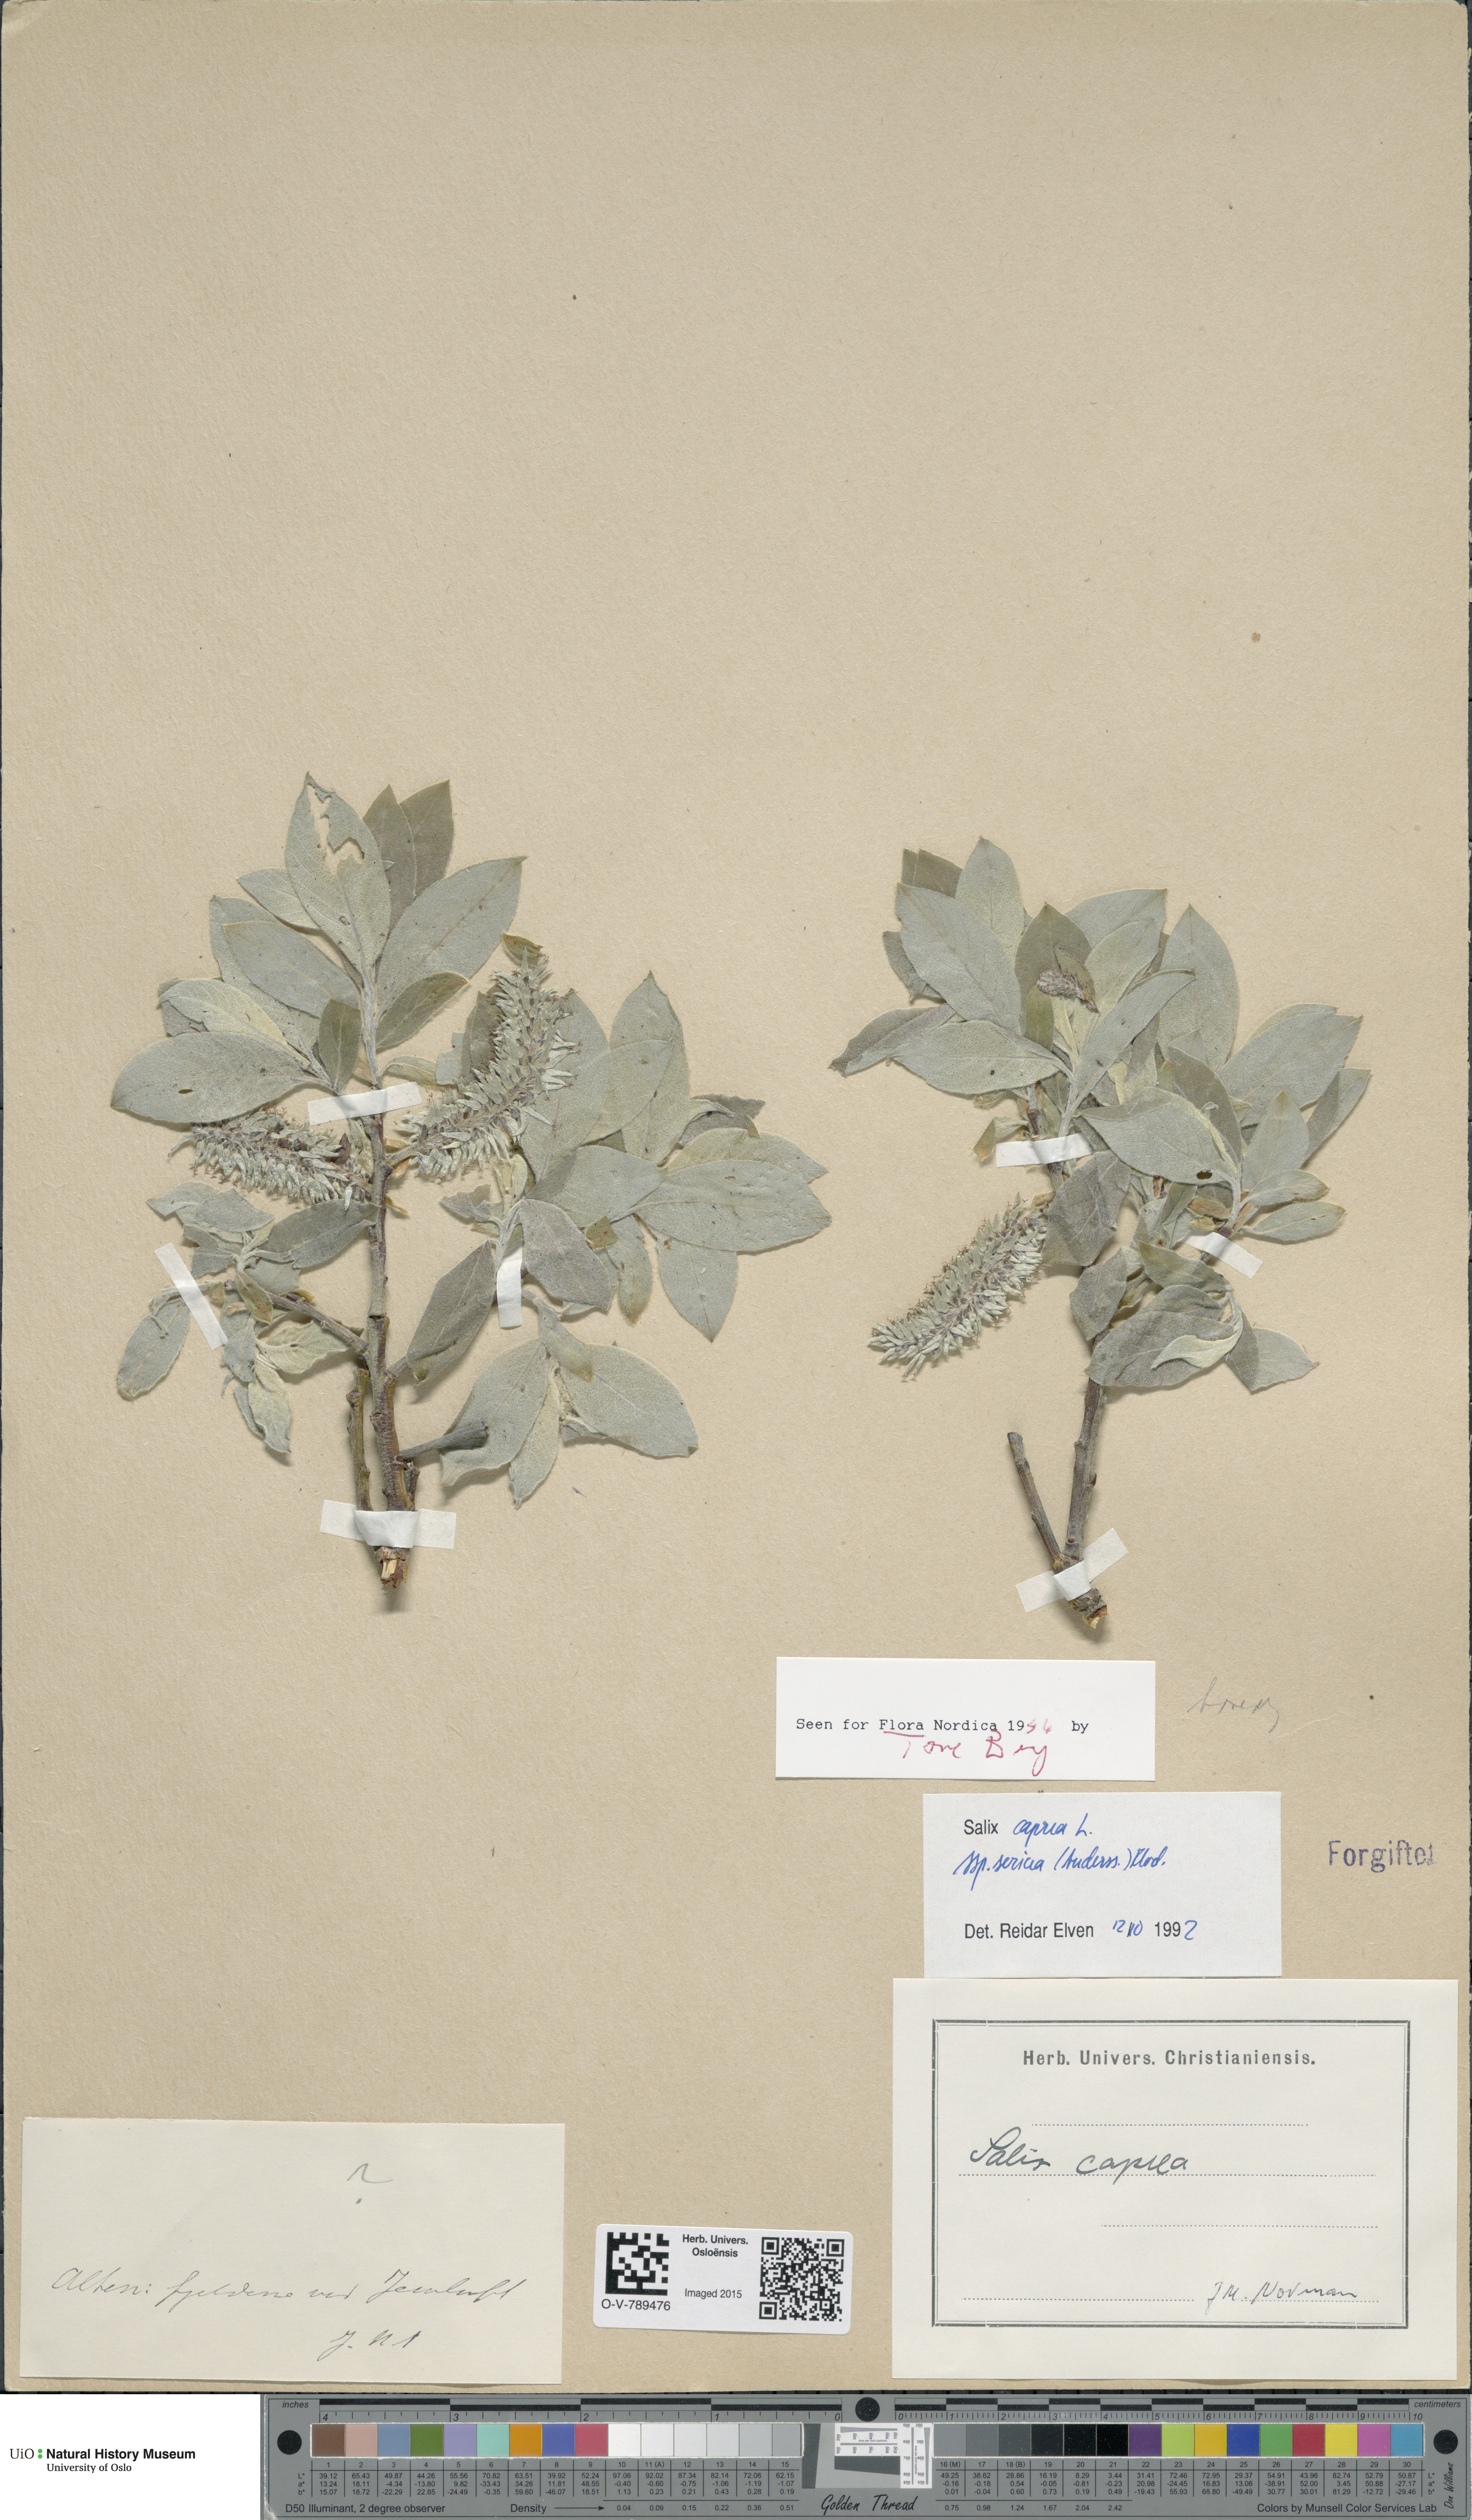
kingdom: Plantae
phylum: Tracheophyta
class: Magnoliopsida
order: Malpighiales
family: Salicaceae
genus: Salix
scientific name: Salix caprea
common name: Goat willow
